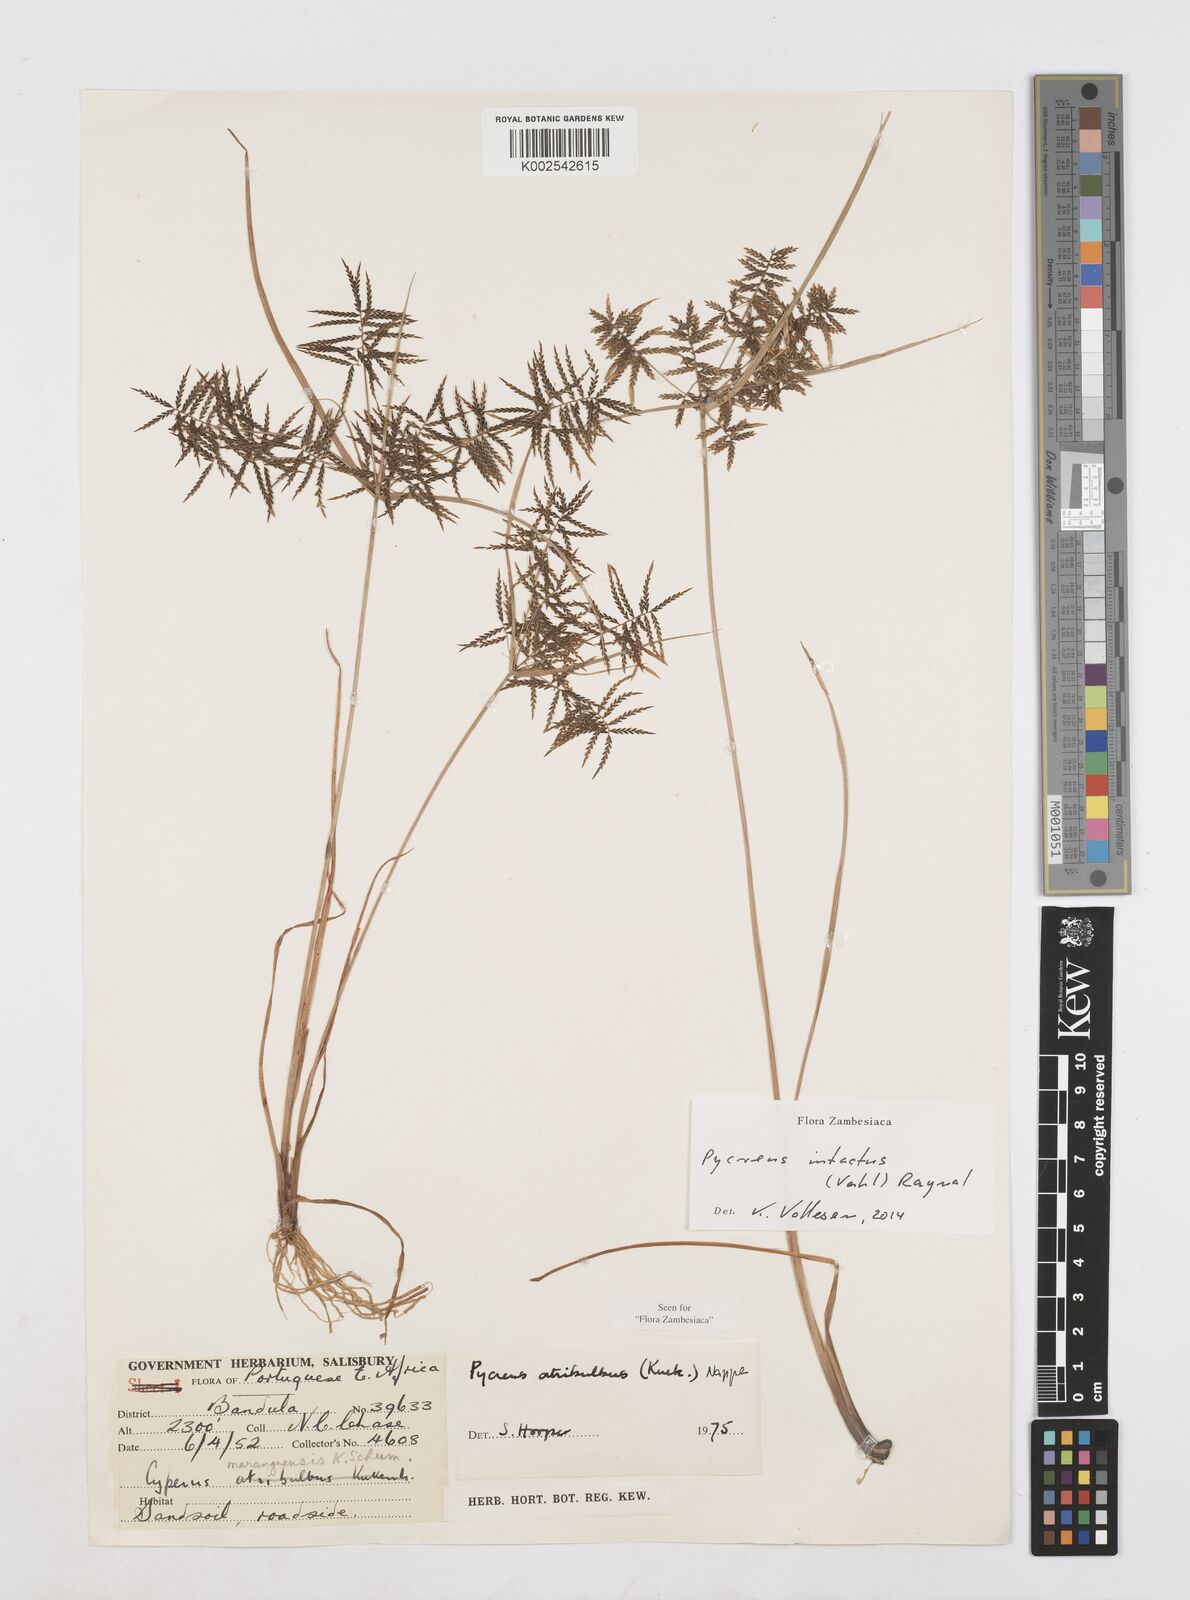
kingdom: Plantae
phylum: Tracheophyta
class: Liliopsida
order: Poales
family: Cyperaceae
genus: Cyperus
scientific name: Cyperus intactus
